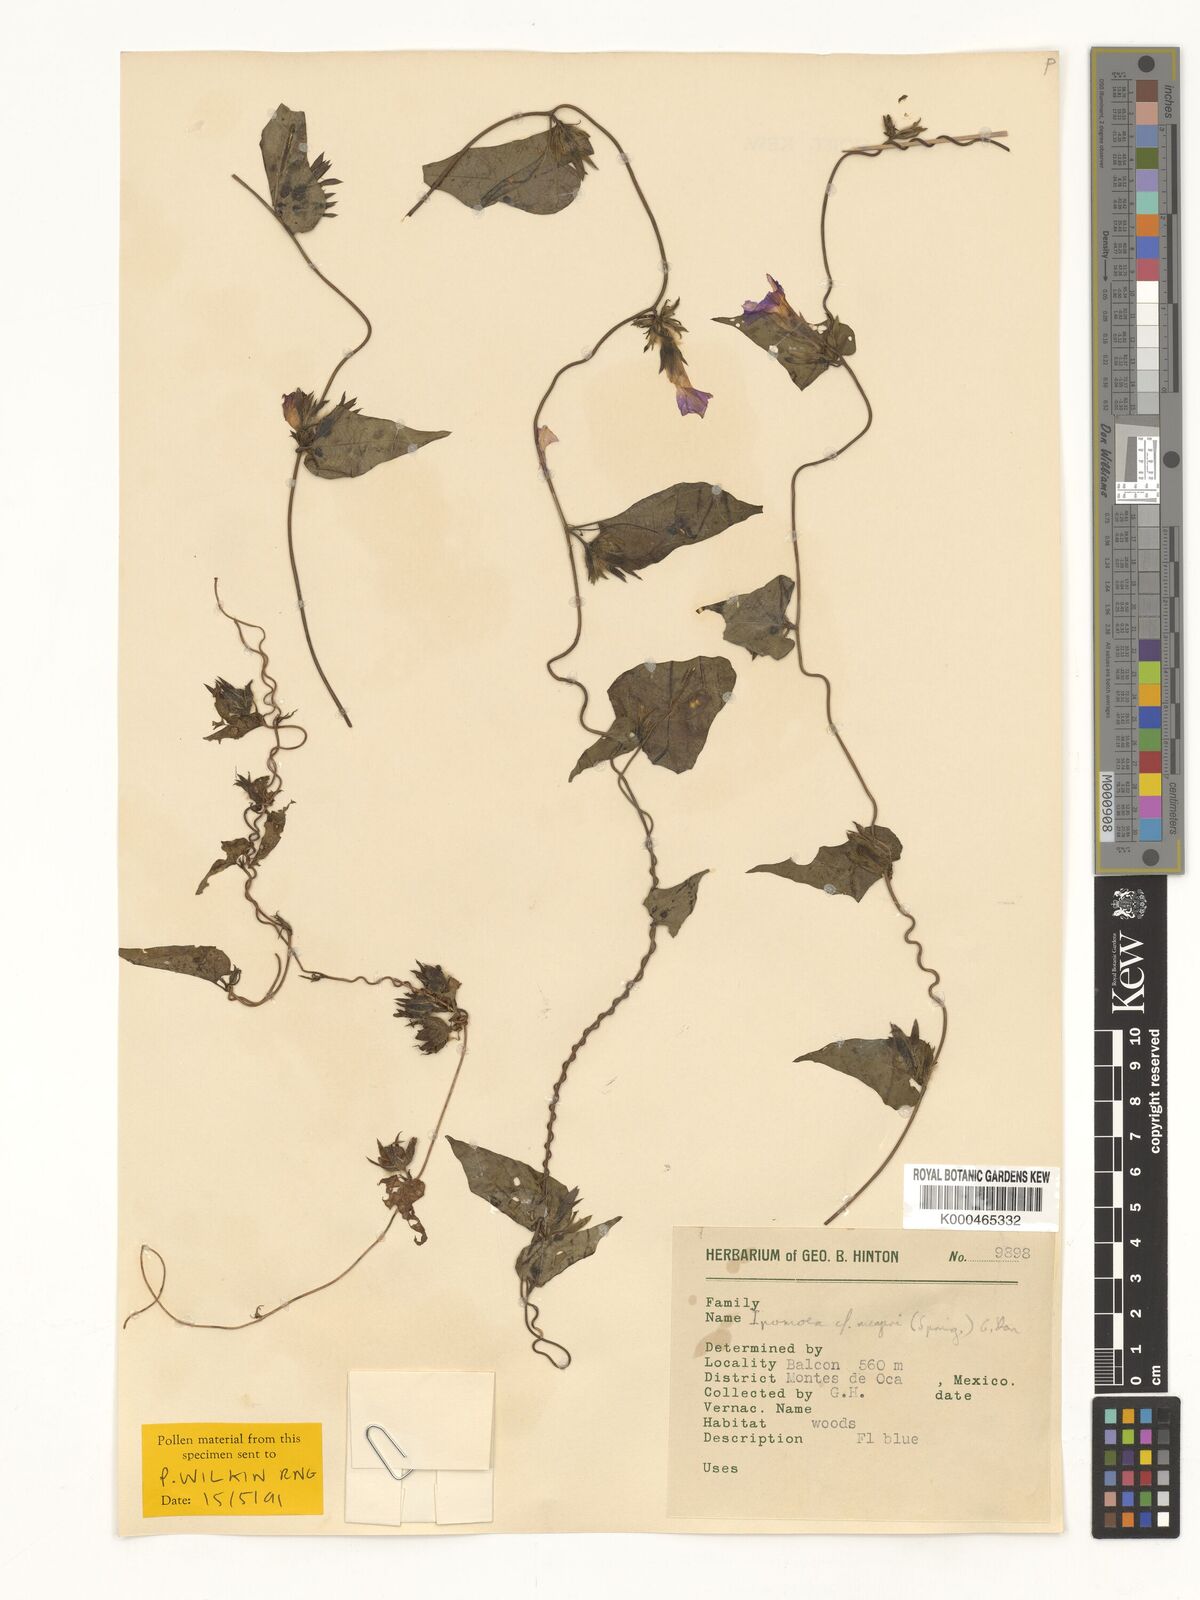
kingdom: Plantae
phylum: Tracheophyta
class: Magnoliopsida
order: Solanales
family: Convolvulaceae
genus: Ipomoea
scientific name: Ipomoea meyeri
